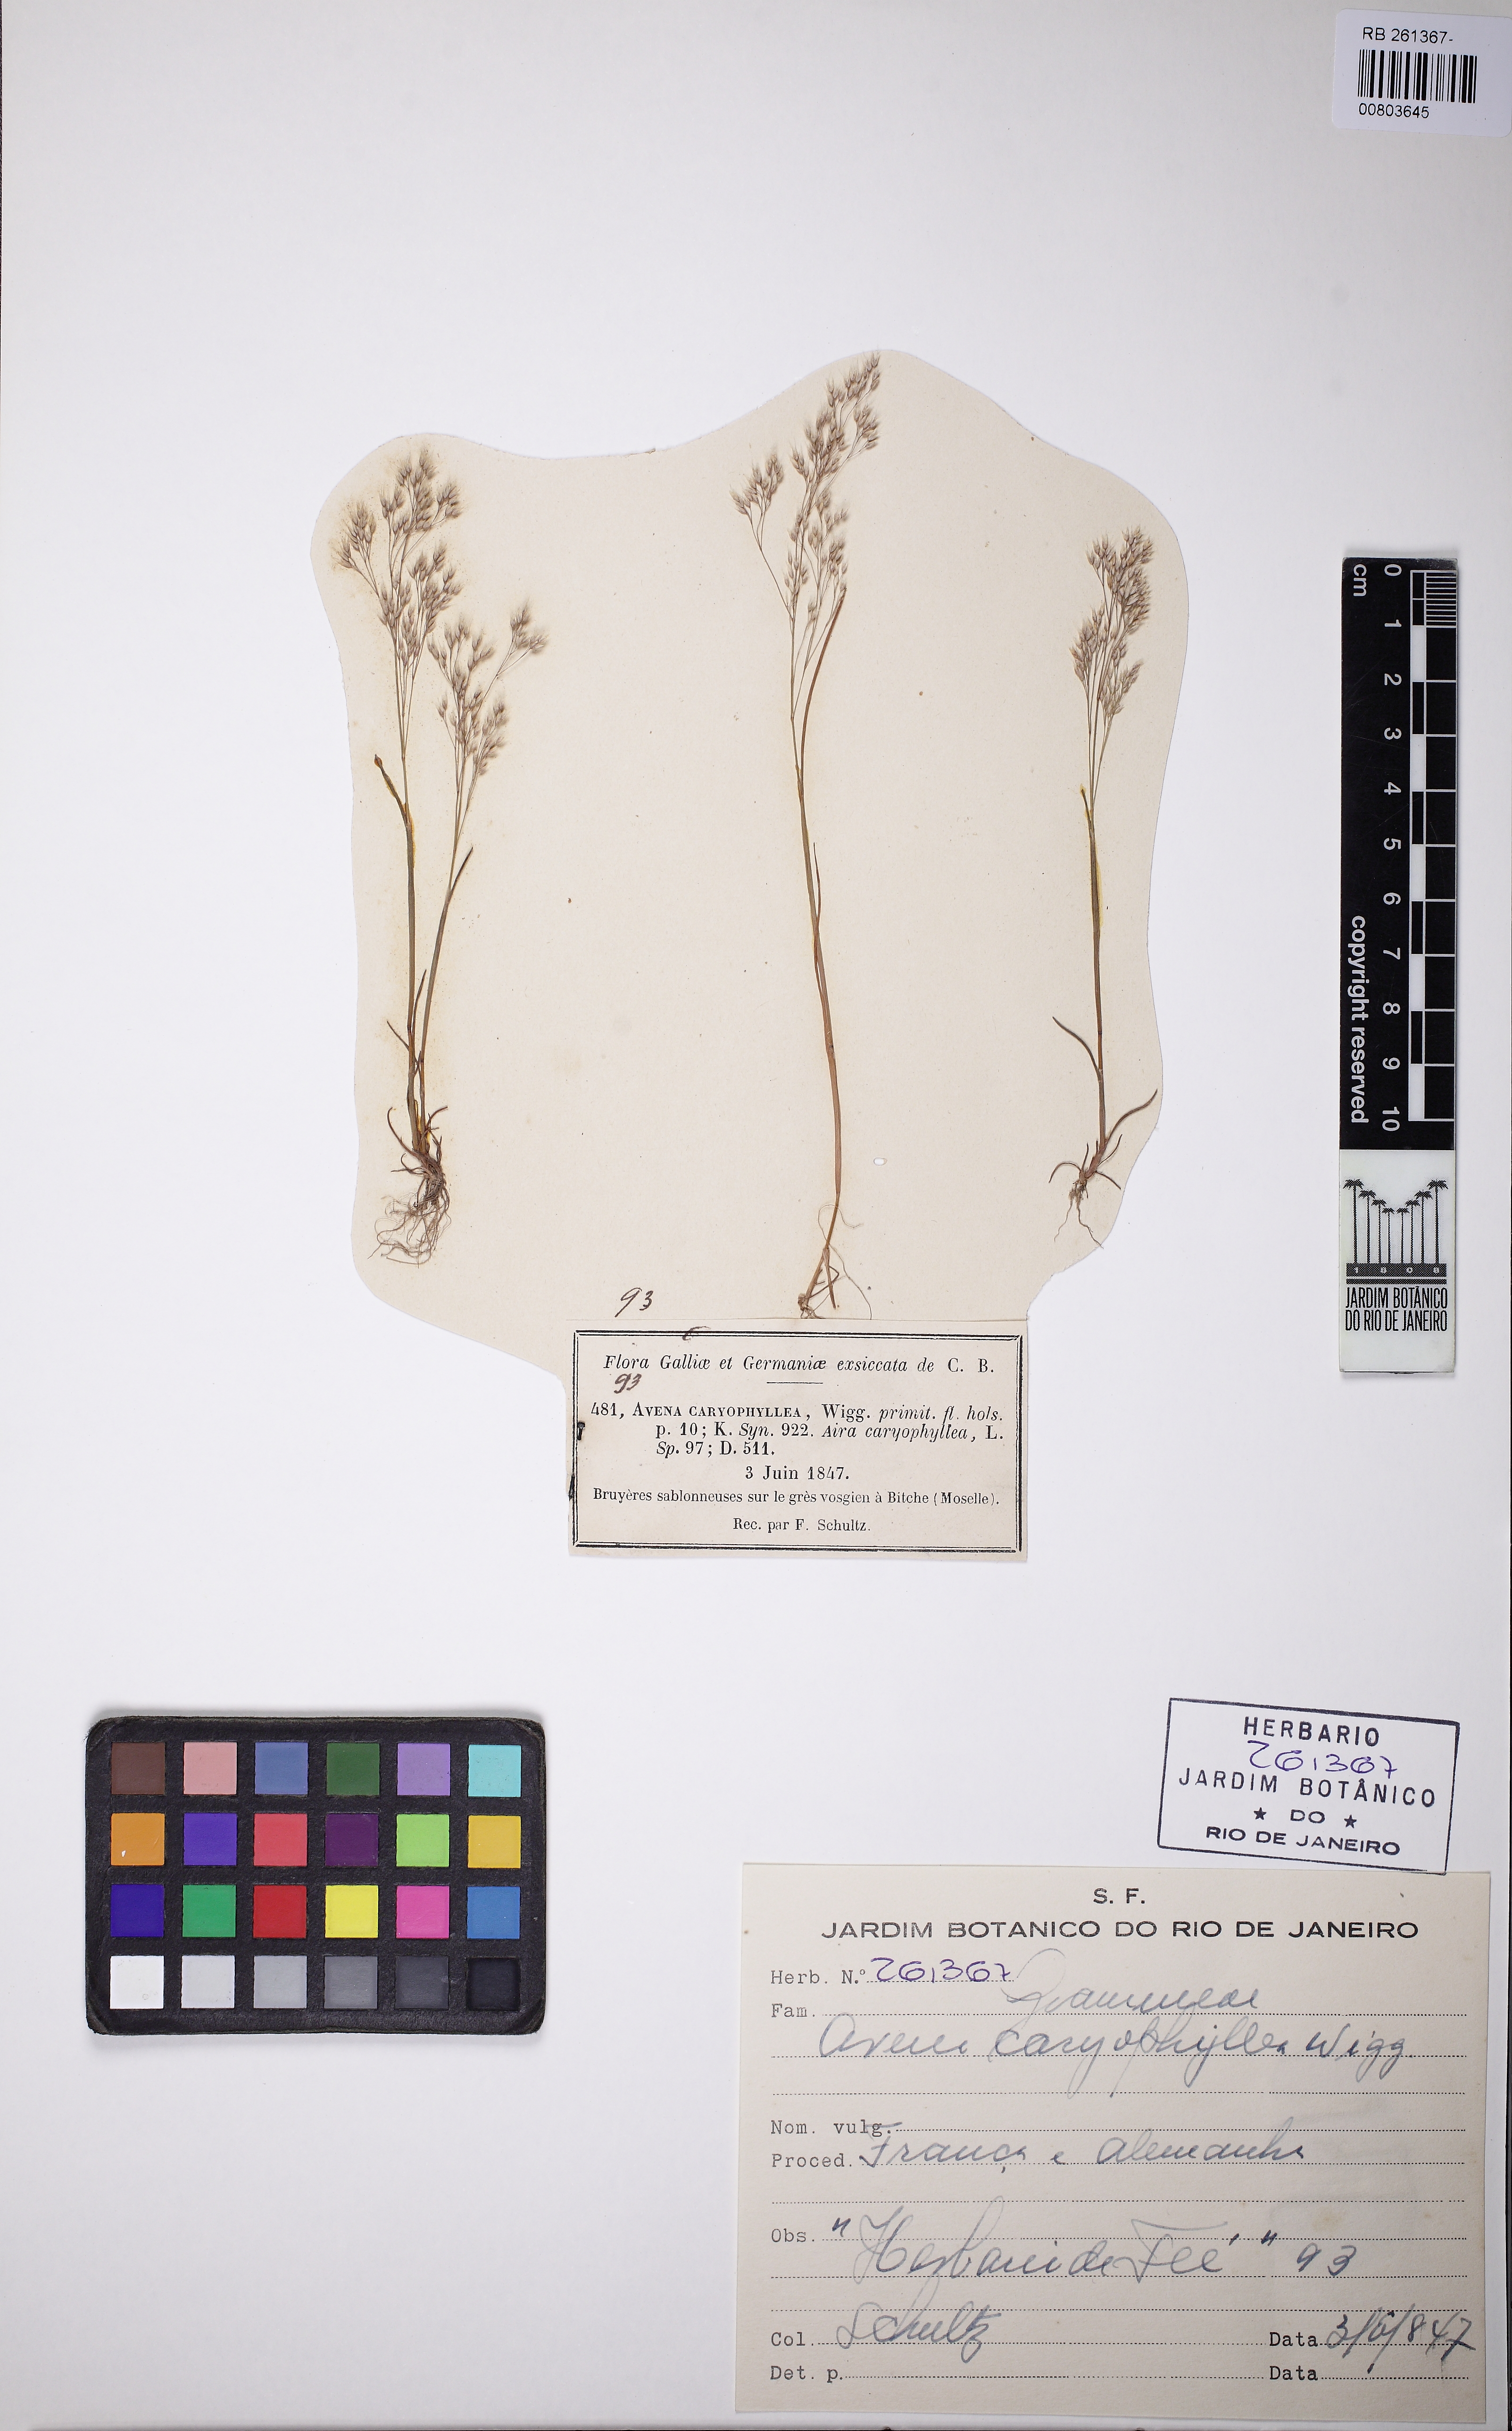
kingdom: Plantae
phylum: Tracheophyta
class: Liliopsida
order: Poales
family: Poaceae
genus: Aira
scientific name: Aira caryophyllea
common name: Silver hairgrass
